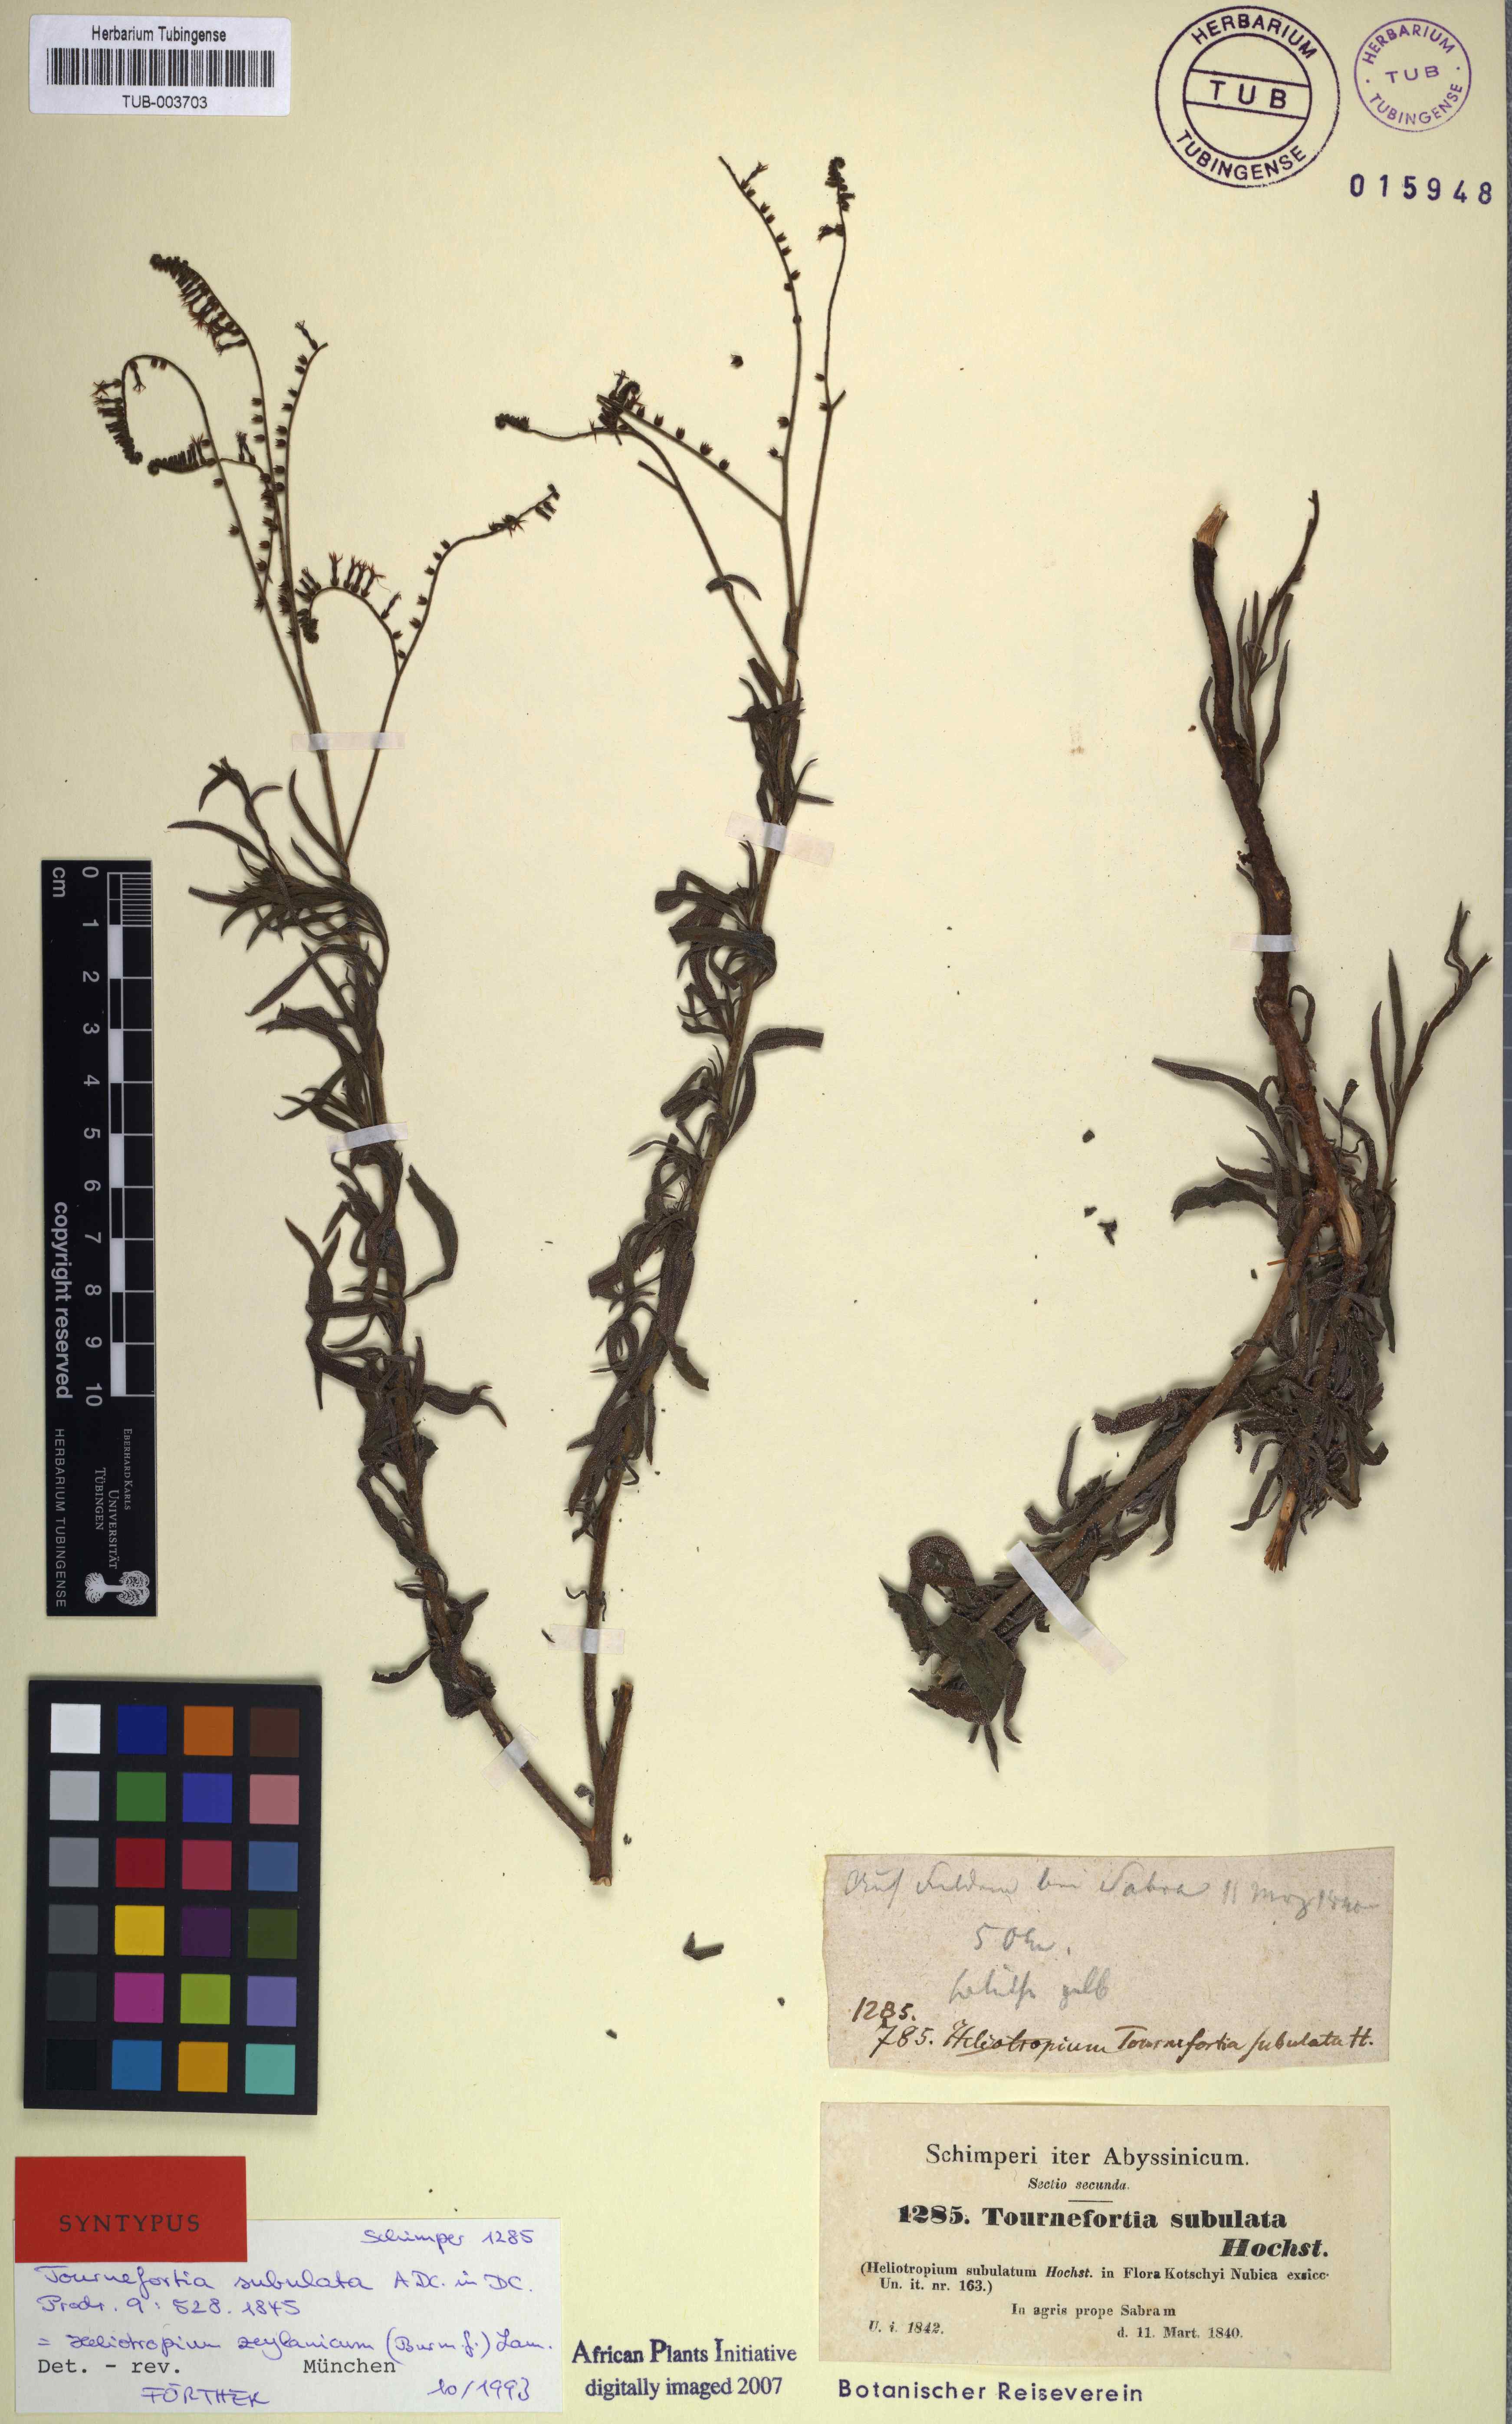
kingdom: Plantae
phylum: Tracheophyta
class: Magnoliopsida
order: Boraginales
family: Heliotropiaceae
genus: Heliotropium
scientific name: Heliotropium zeylanicum
